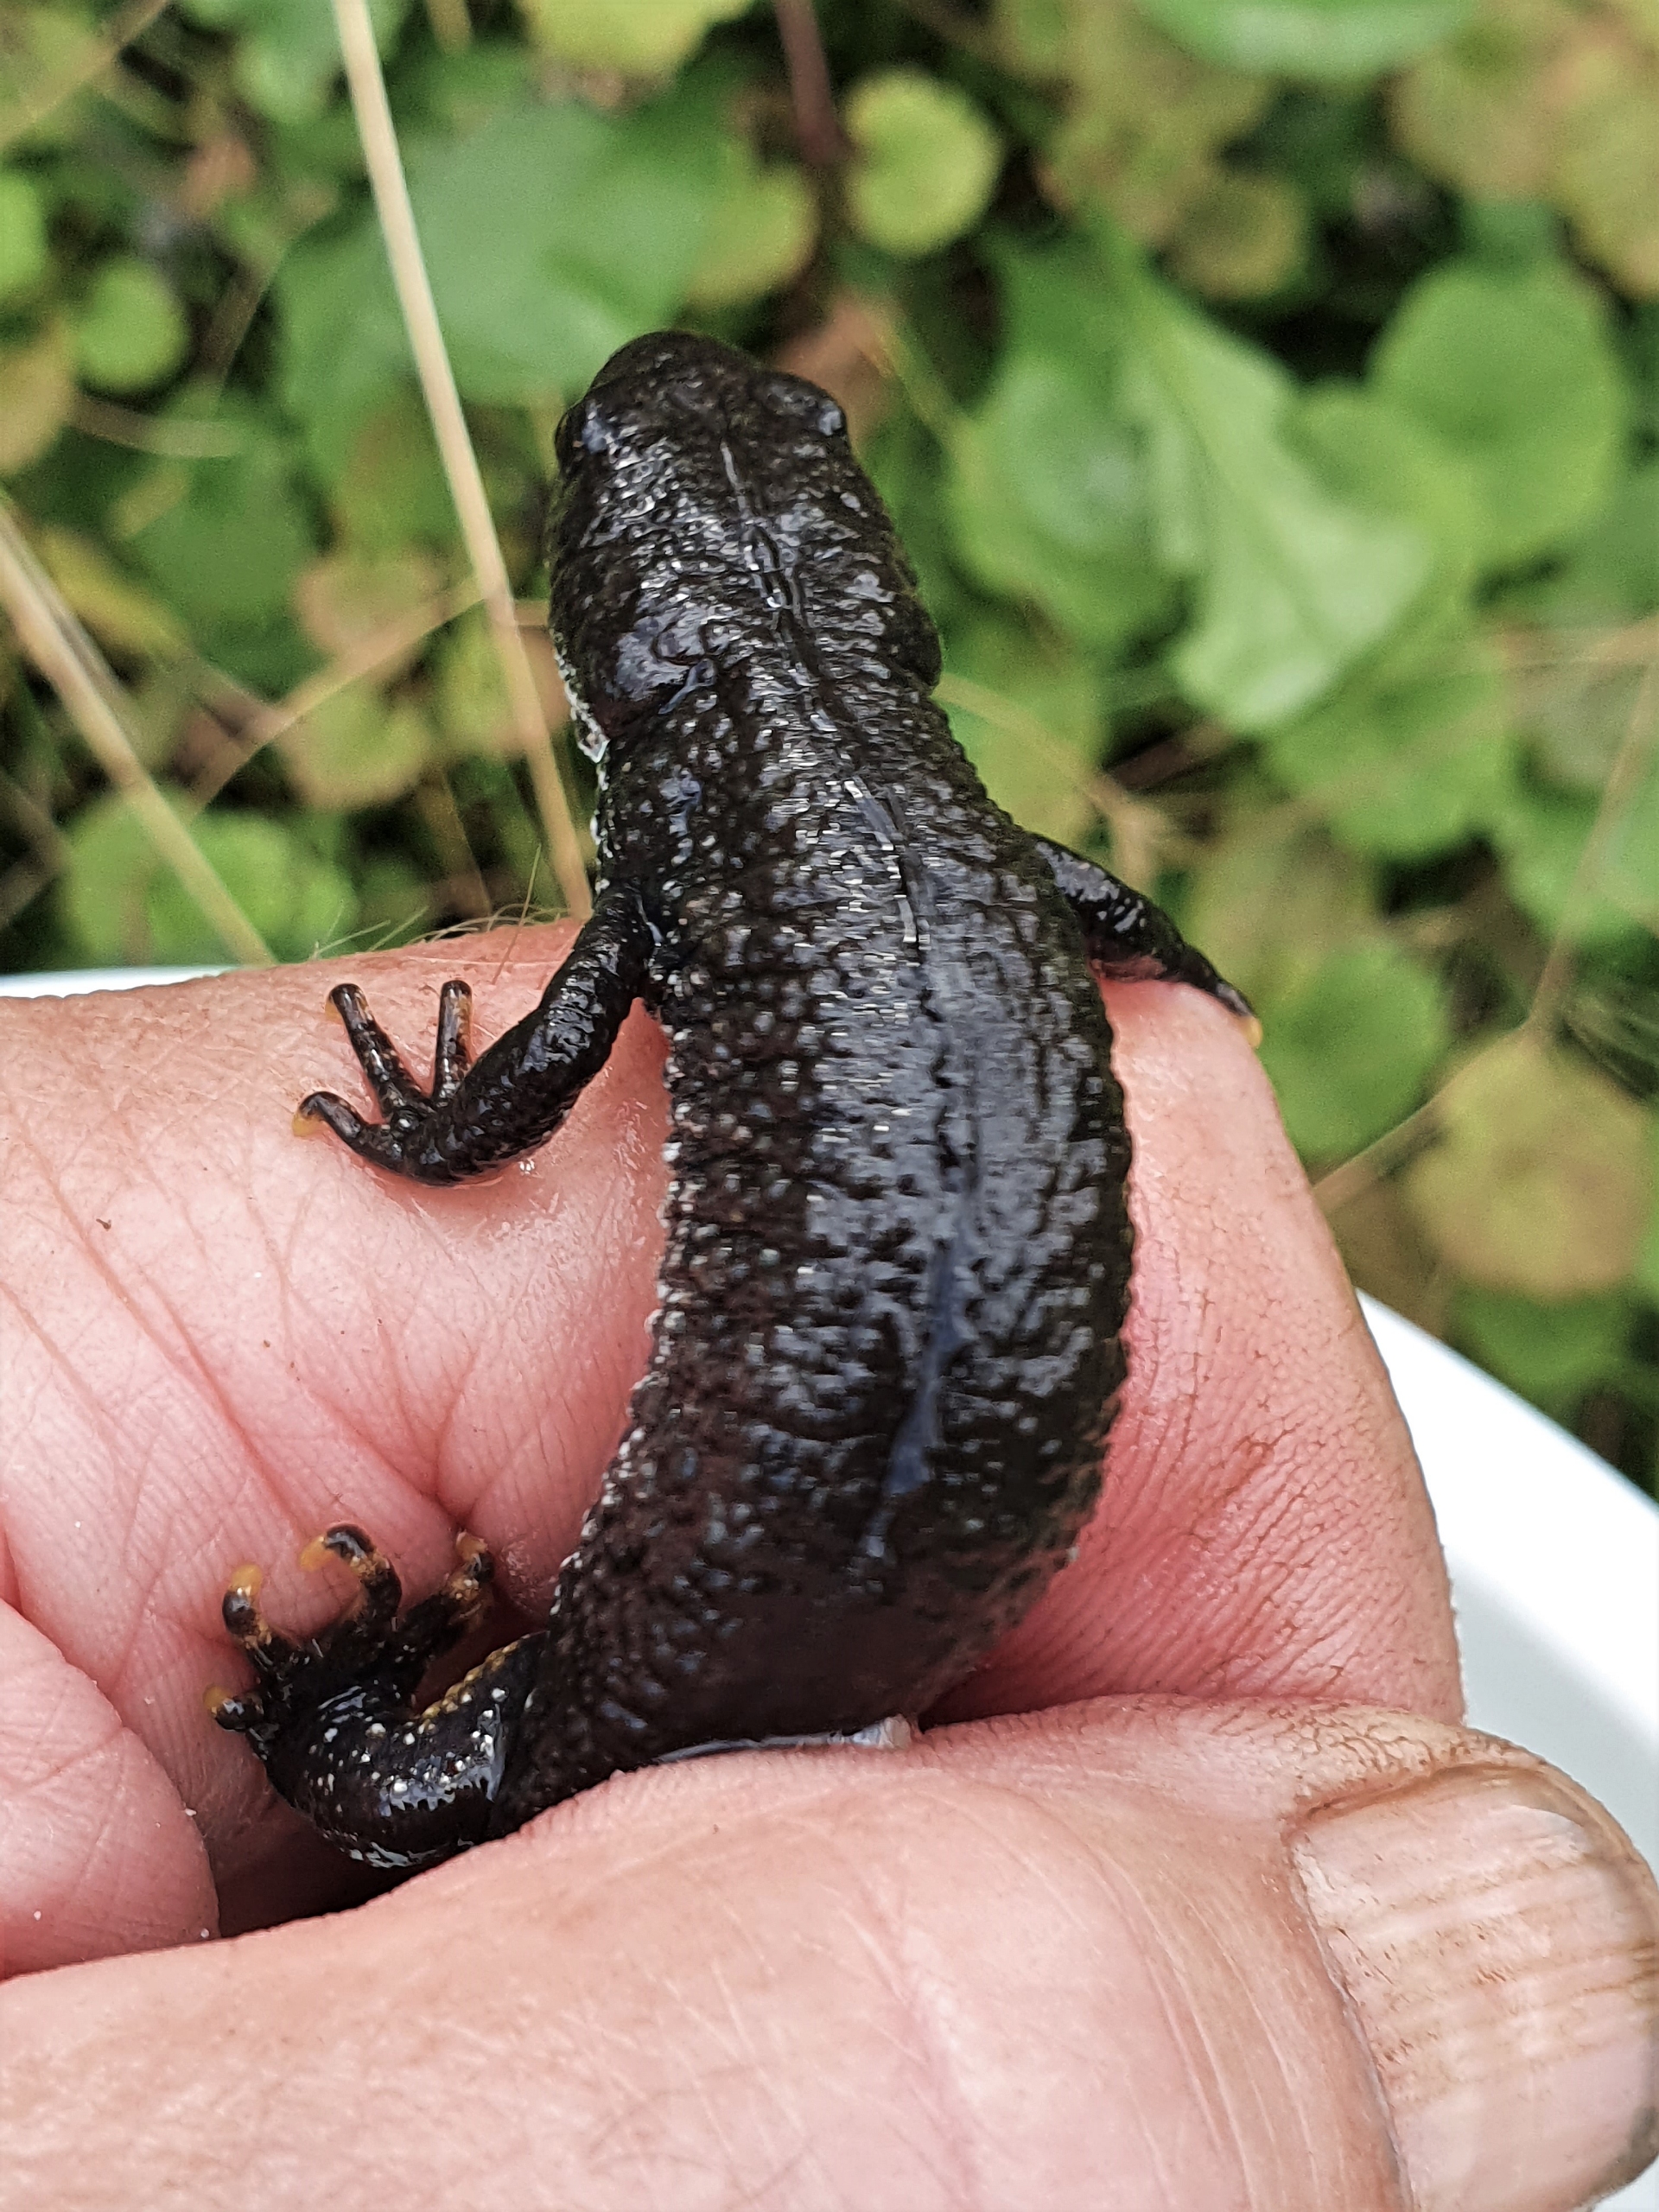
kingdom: Animalia
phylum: Chordata
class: Amphibia
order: Caudata
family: Salamandridae
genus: Triturus
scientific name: Triturus cristatus
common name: Stor vandsalamander
